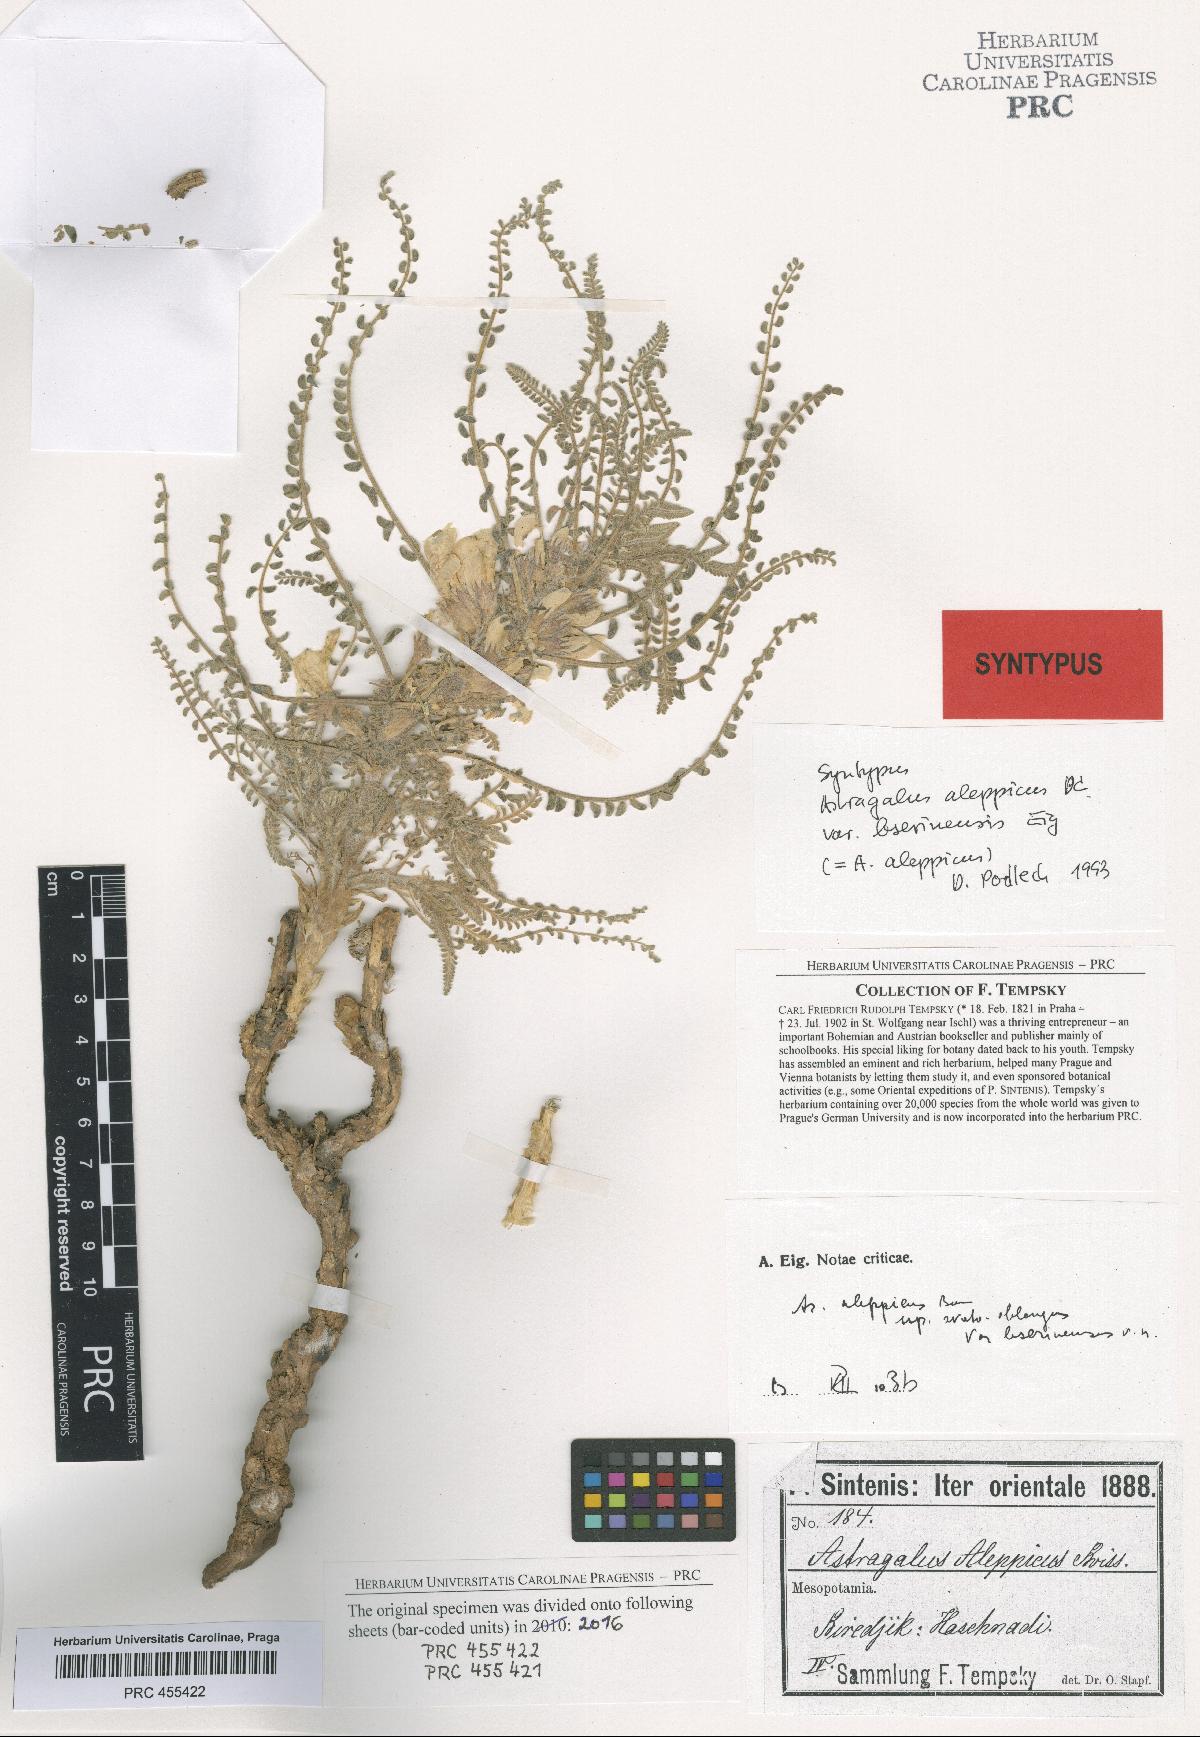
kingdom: Plantae
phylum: Tracheophyta
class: Magnoliopsida
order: Fabales
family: Fabaceae
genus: Astragalus
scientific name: Astragalus aleppicus
